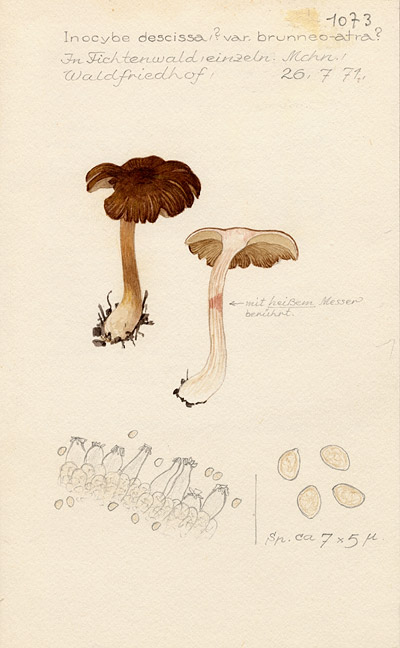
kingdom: Fungi
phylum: Basidiomycota
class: Agaricomycetes
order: Agaricales
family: Inocybaceae
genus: Inocybe
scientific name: Inocybe fuscidula
